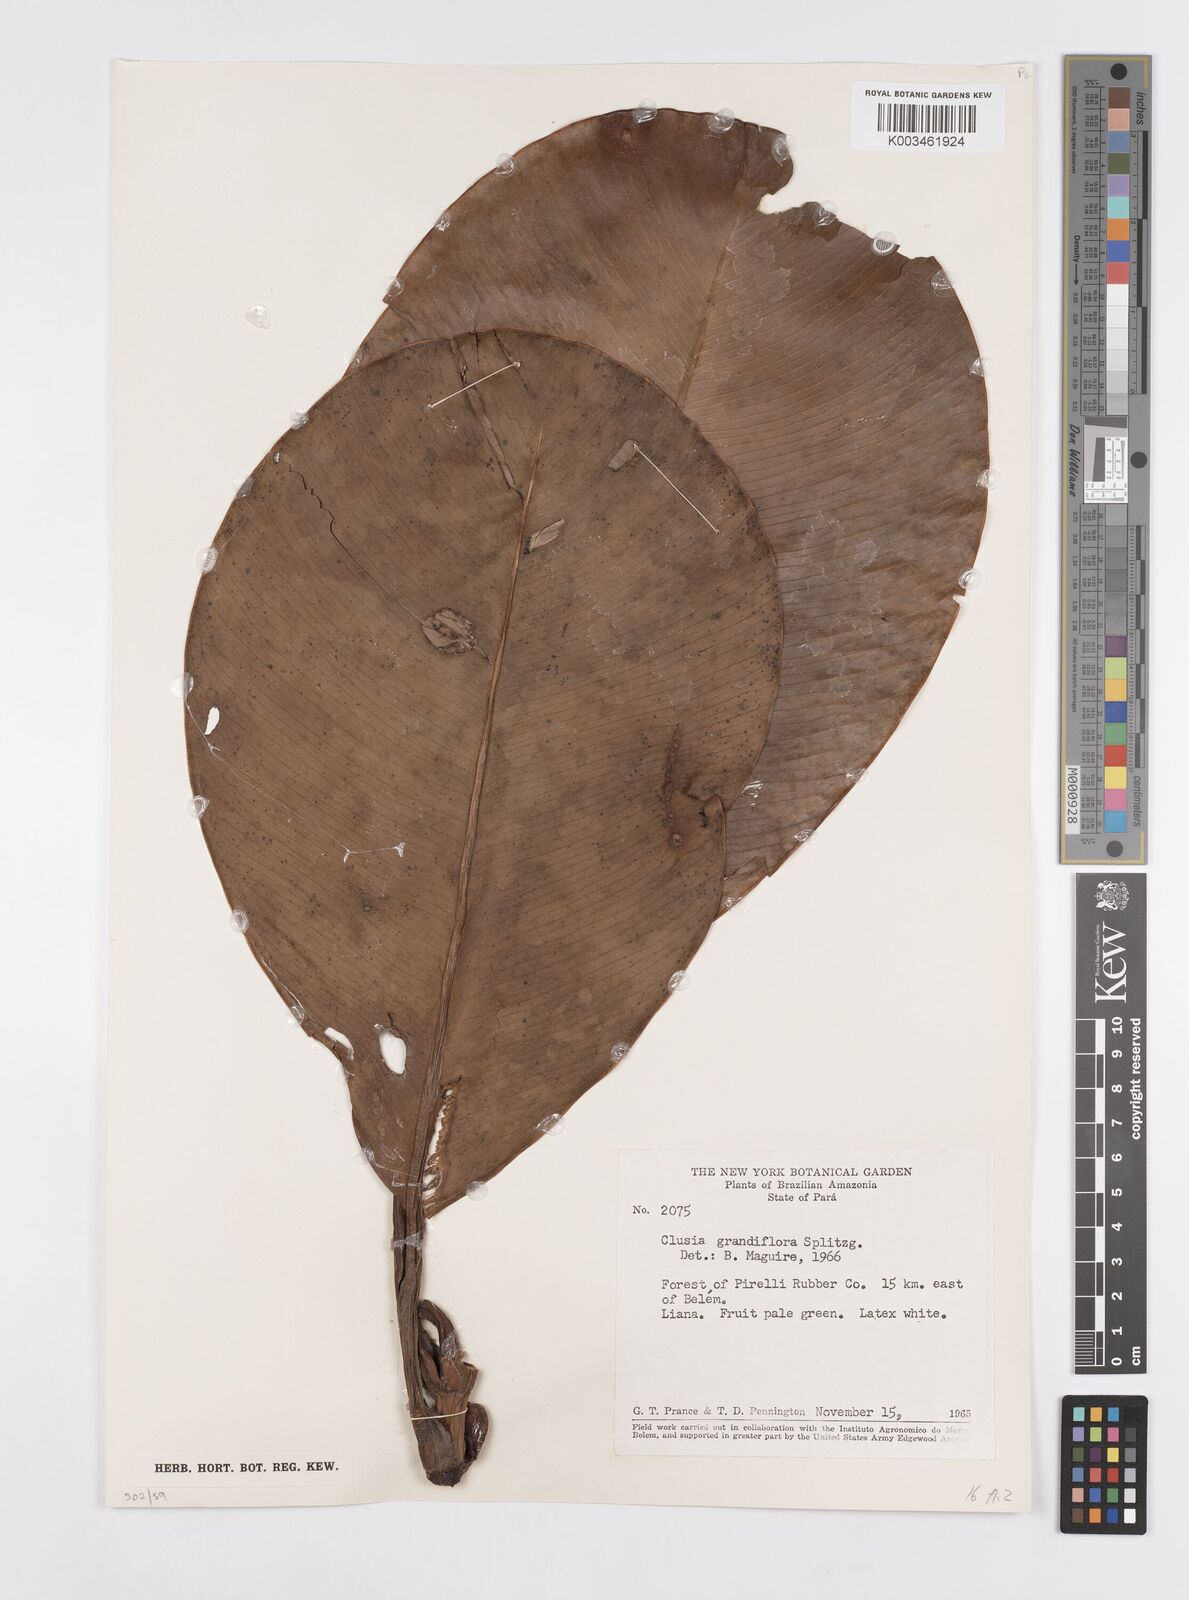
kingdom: Plantae
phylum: Tracheophyta
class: Magnoliopsida
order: Malpighiales
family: Clusiaceae
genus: Clusia
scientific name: Clusia grandiflora
